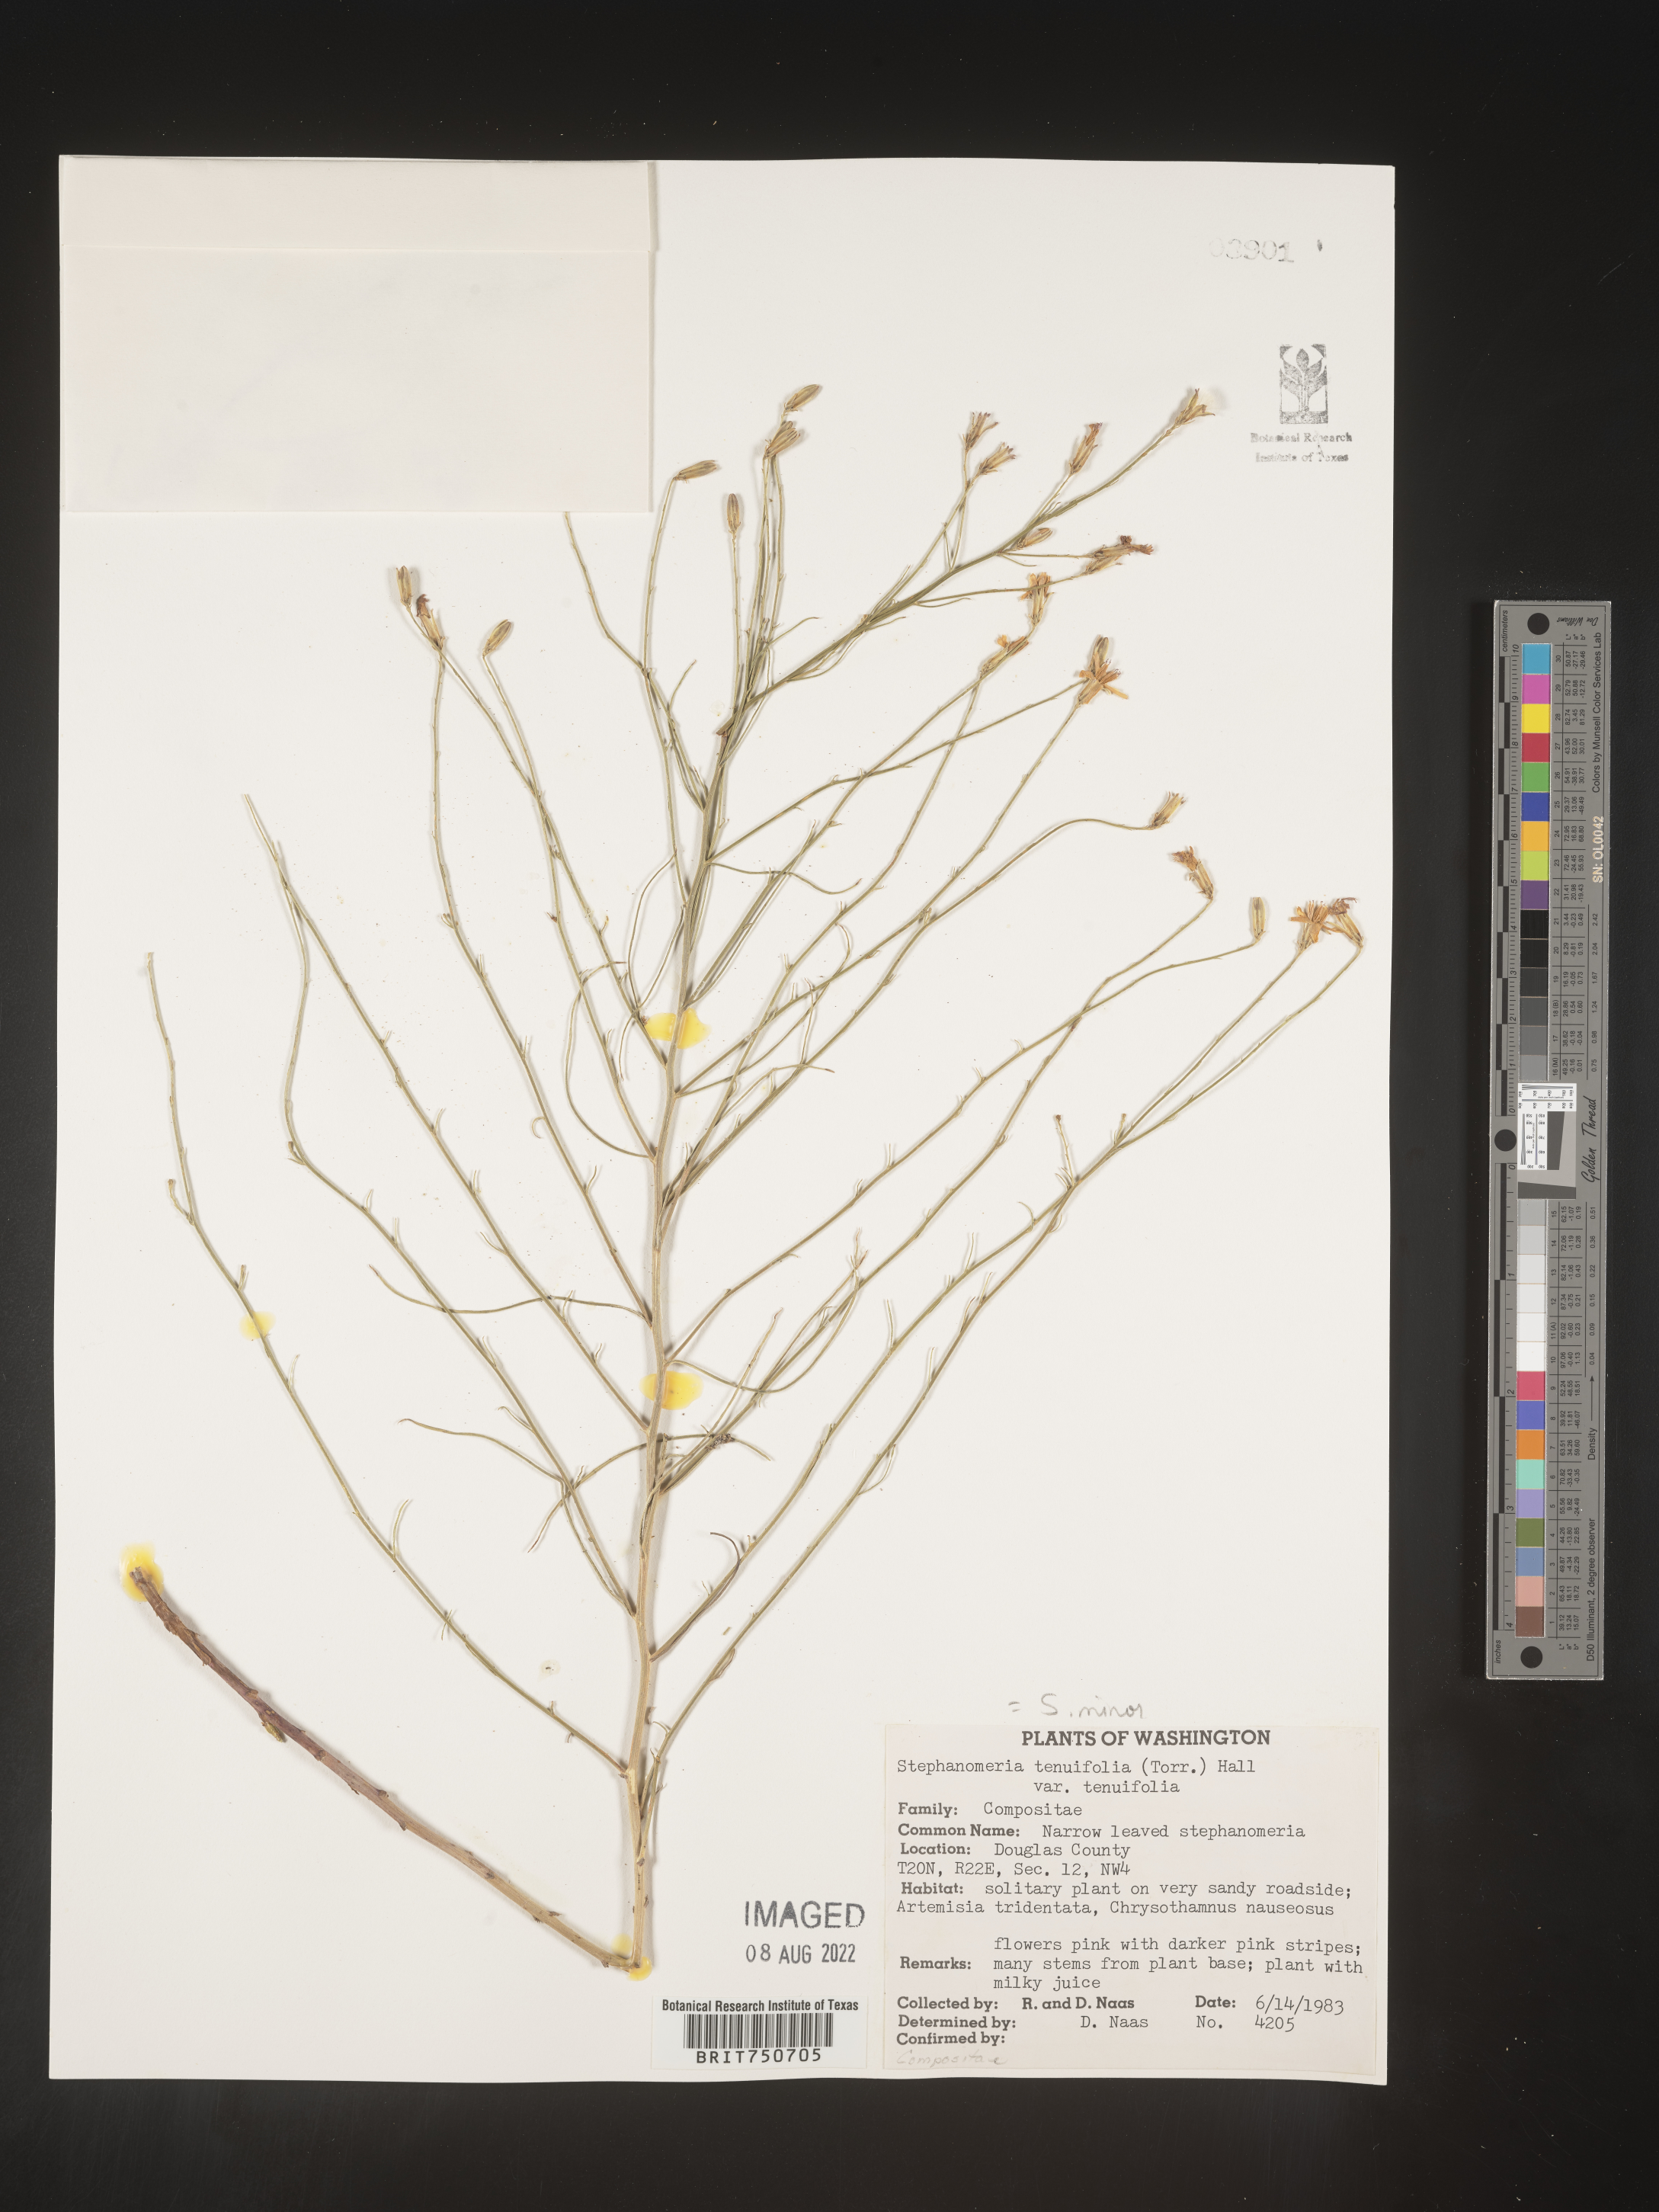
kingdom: Plantae
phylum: Tracheophyta
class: Magnoliopsida
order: Asterales
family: Asteraceae
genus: Stephanomeria
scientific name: Stephanomeria tenuifolia
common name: Slender wirelettuce
